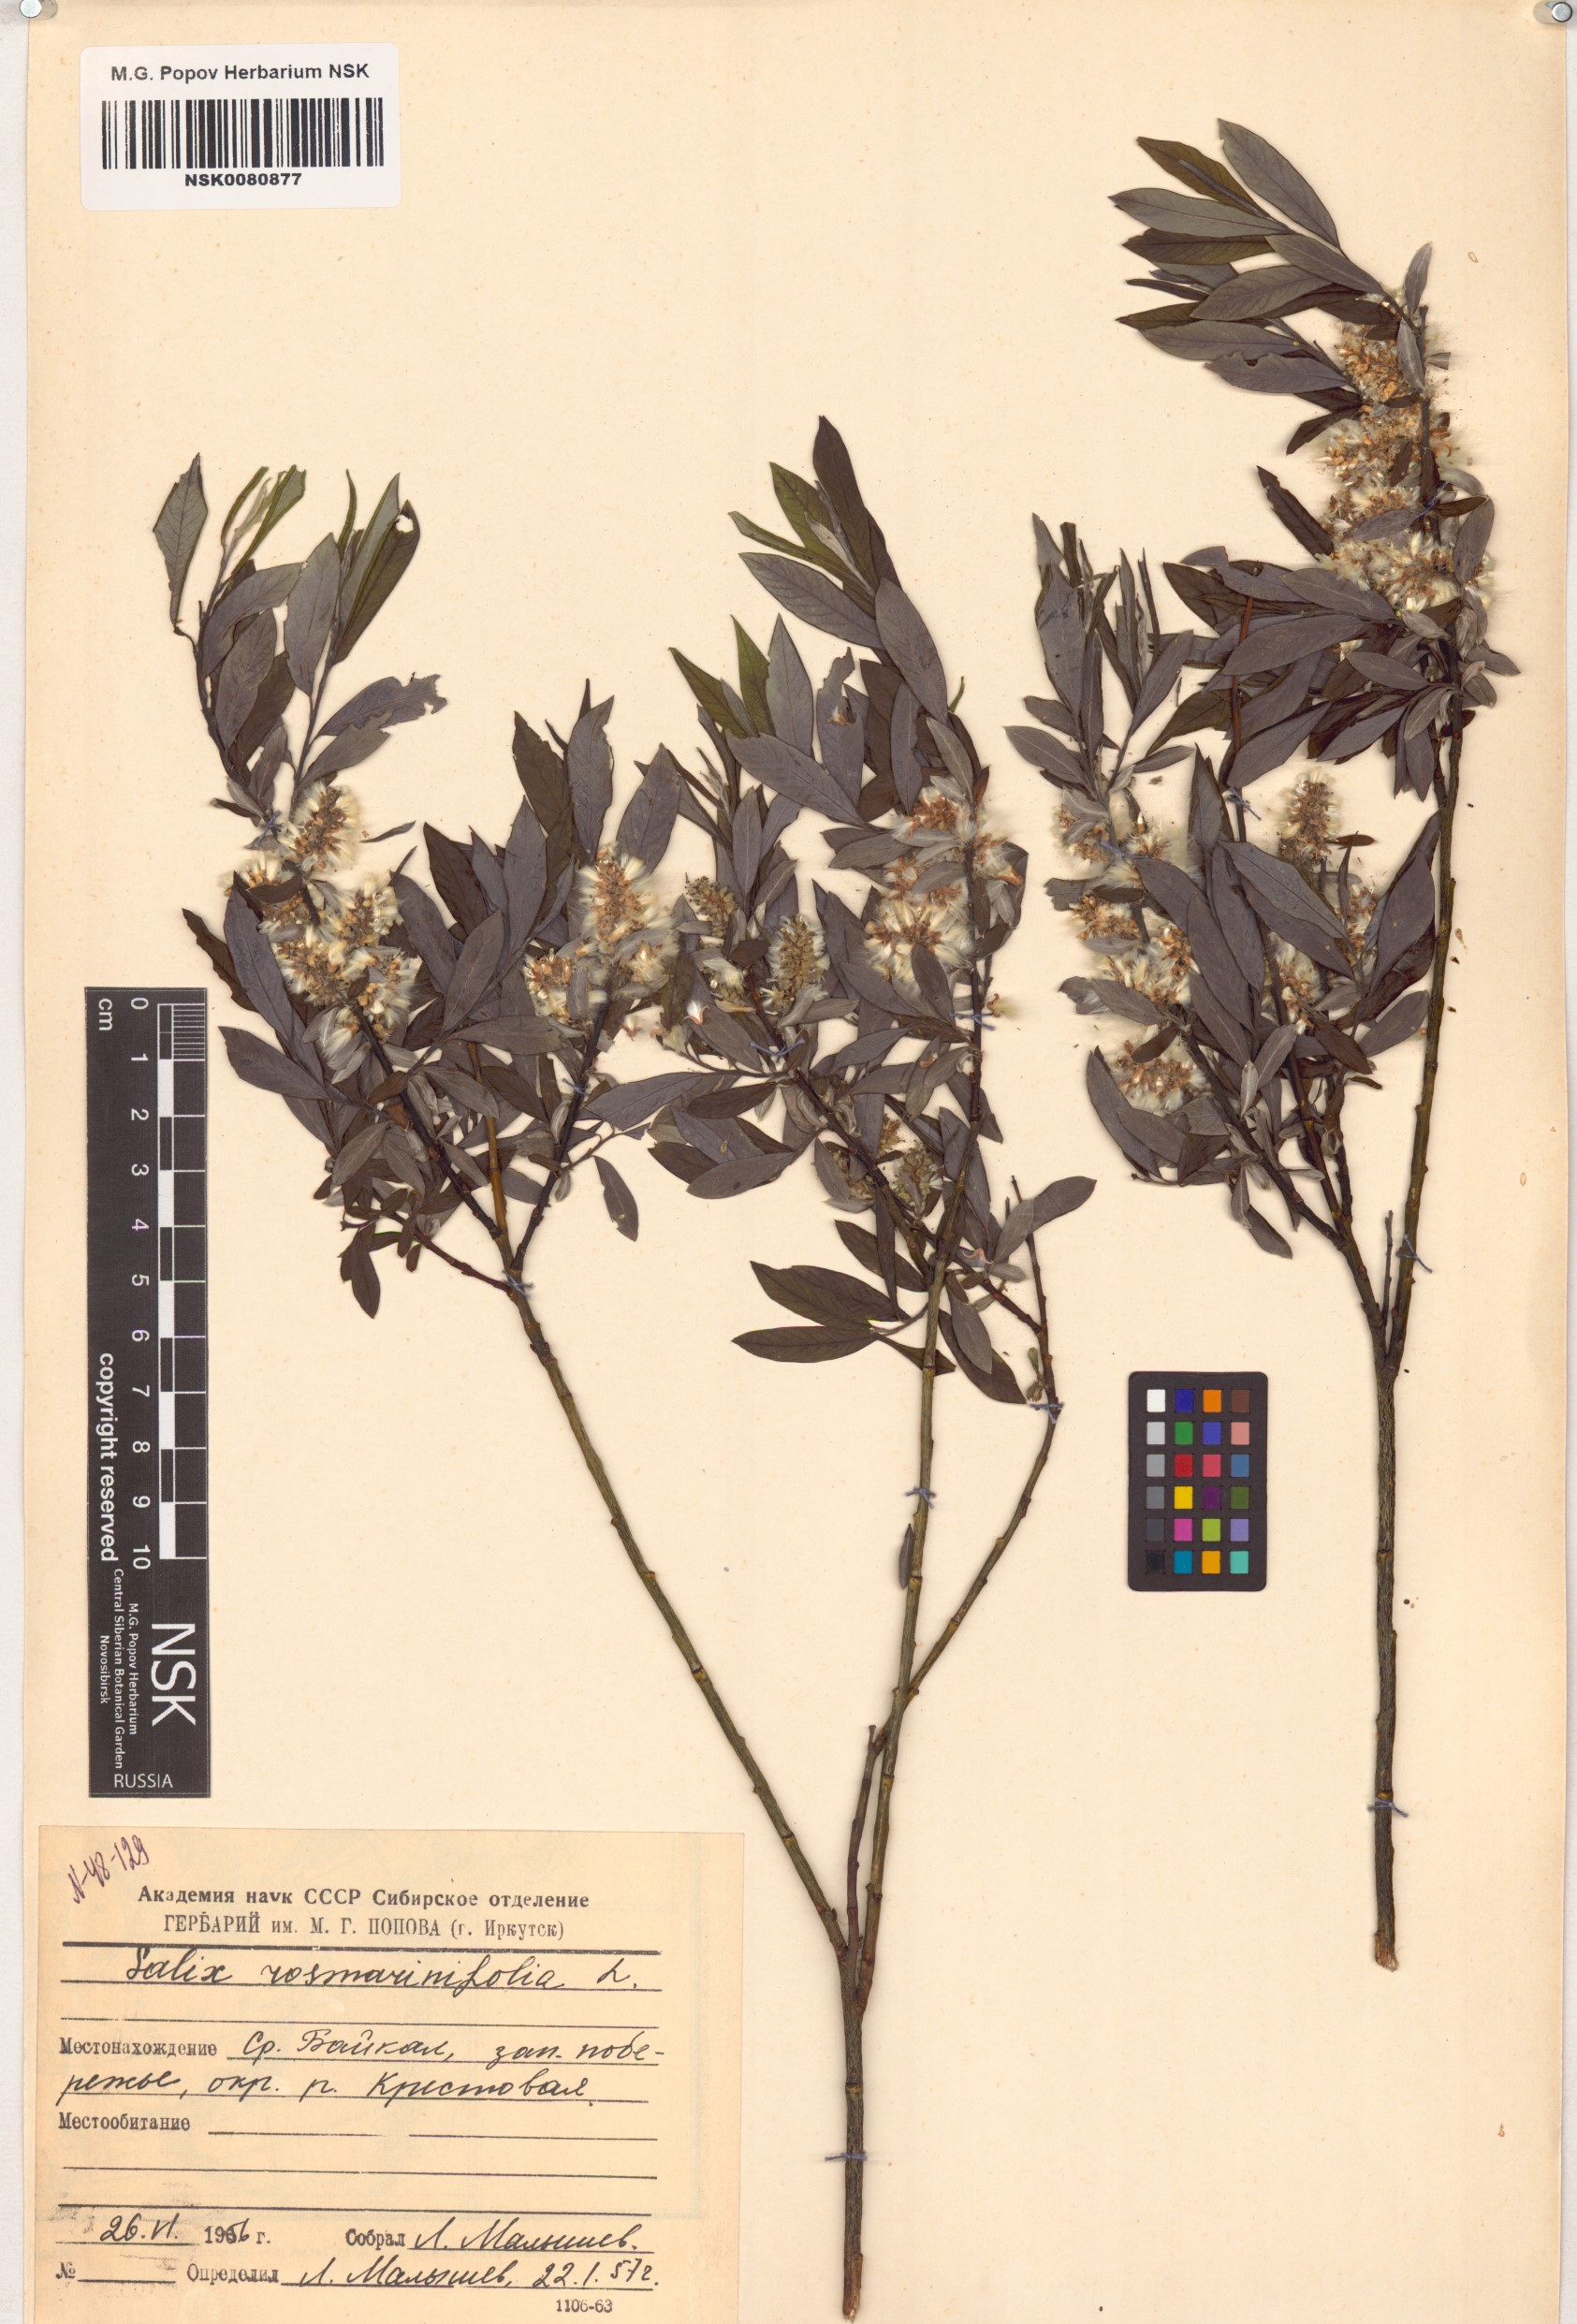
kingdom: Plantae
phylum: Tracheophyta
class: Magnoliopsida
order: Malpighiales
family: Salicaceae
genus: Salix
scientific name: Salix rosmarinifolia
